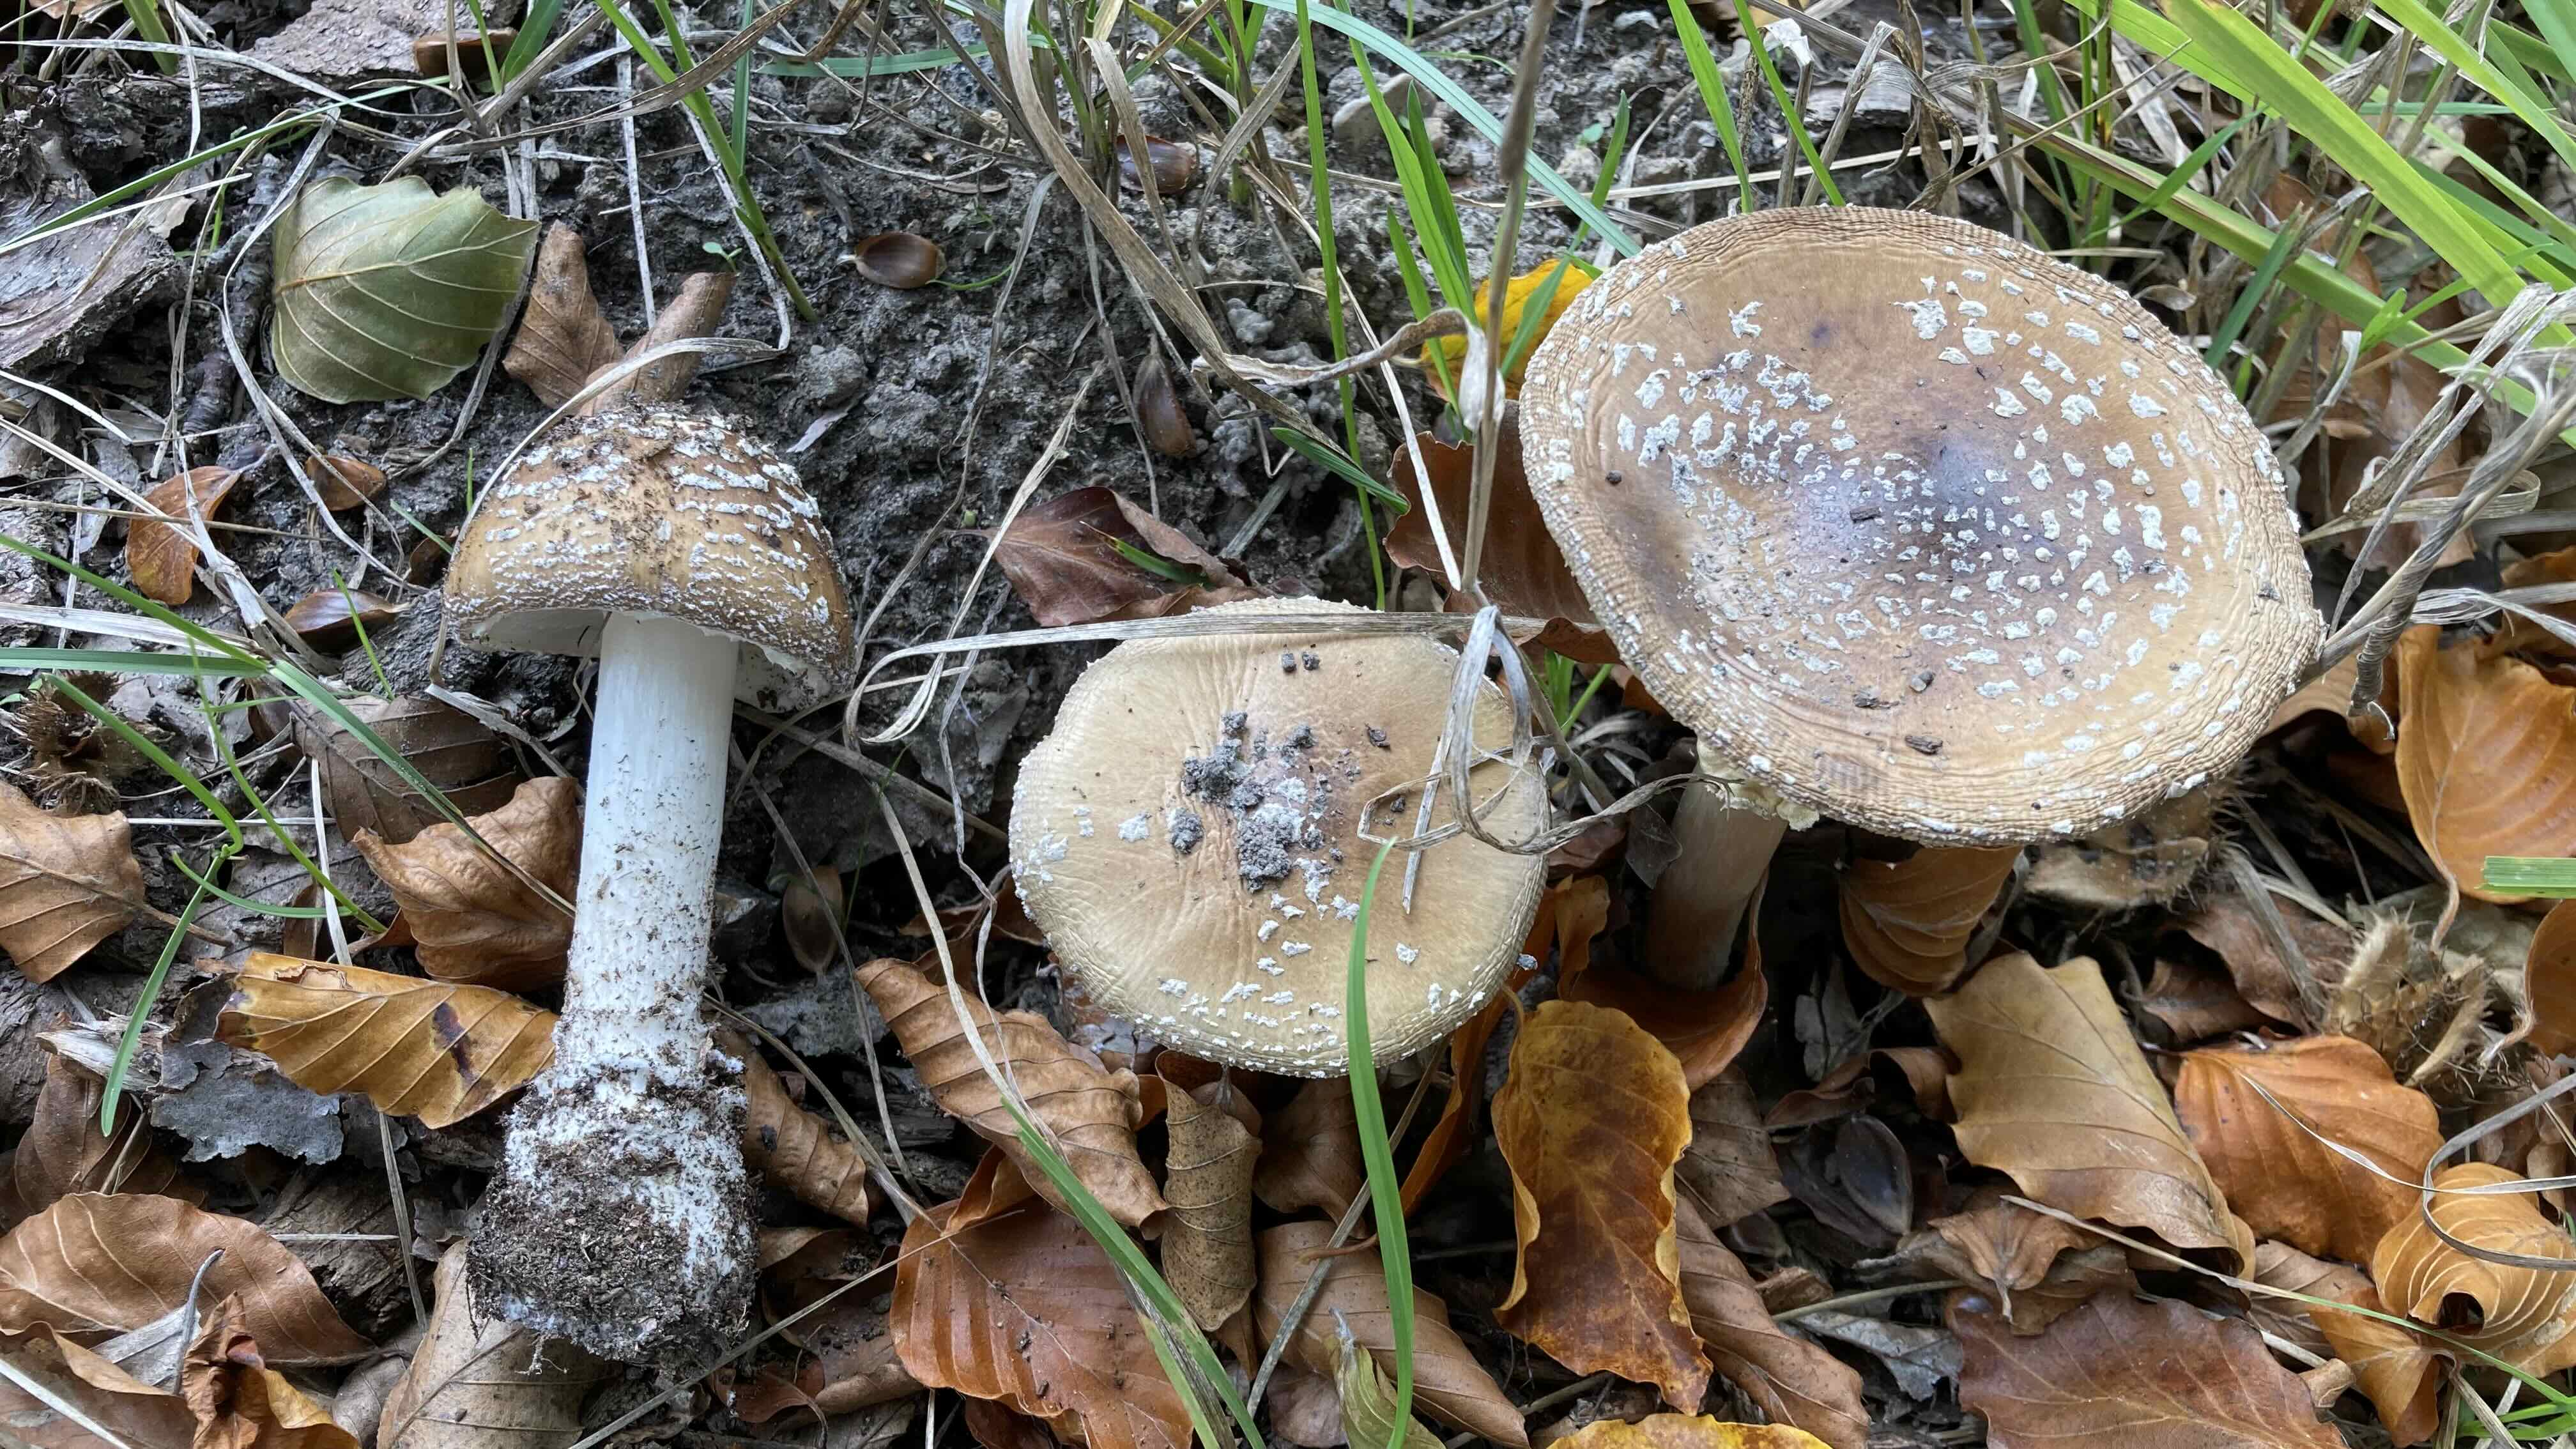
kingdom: Fungi
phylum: Basidiomycota
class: Agaricomycetes
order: Agaricales
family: Amanitaceae
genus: Amanita
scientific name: Amanita pantherina
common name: panter-fluesvamp
